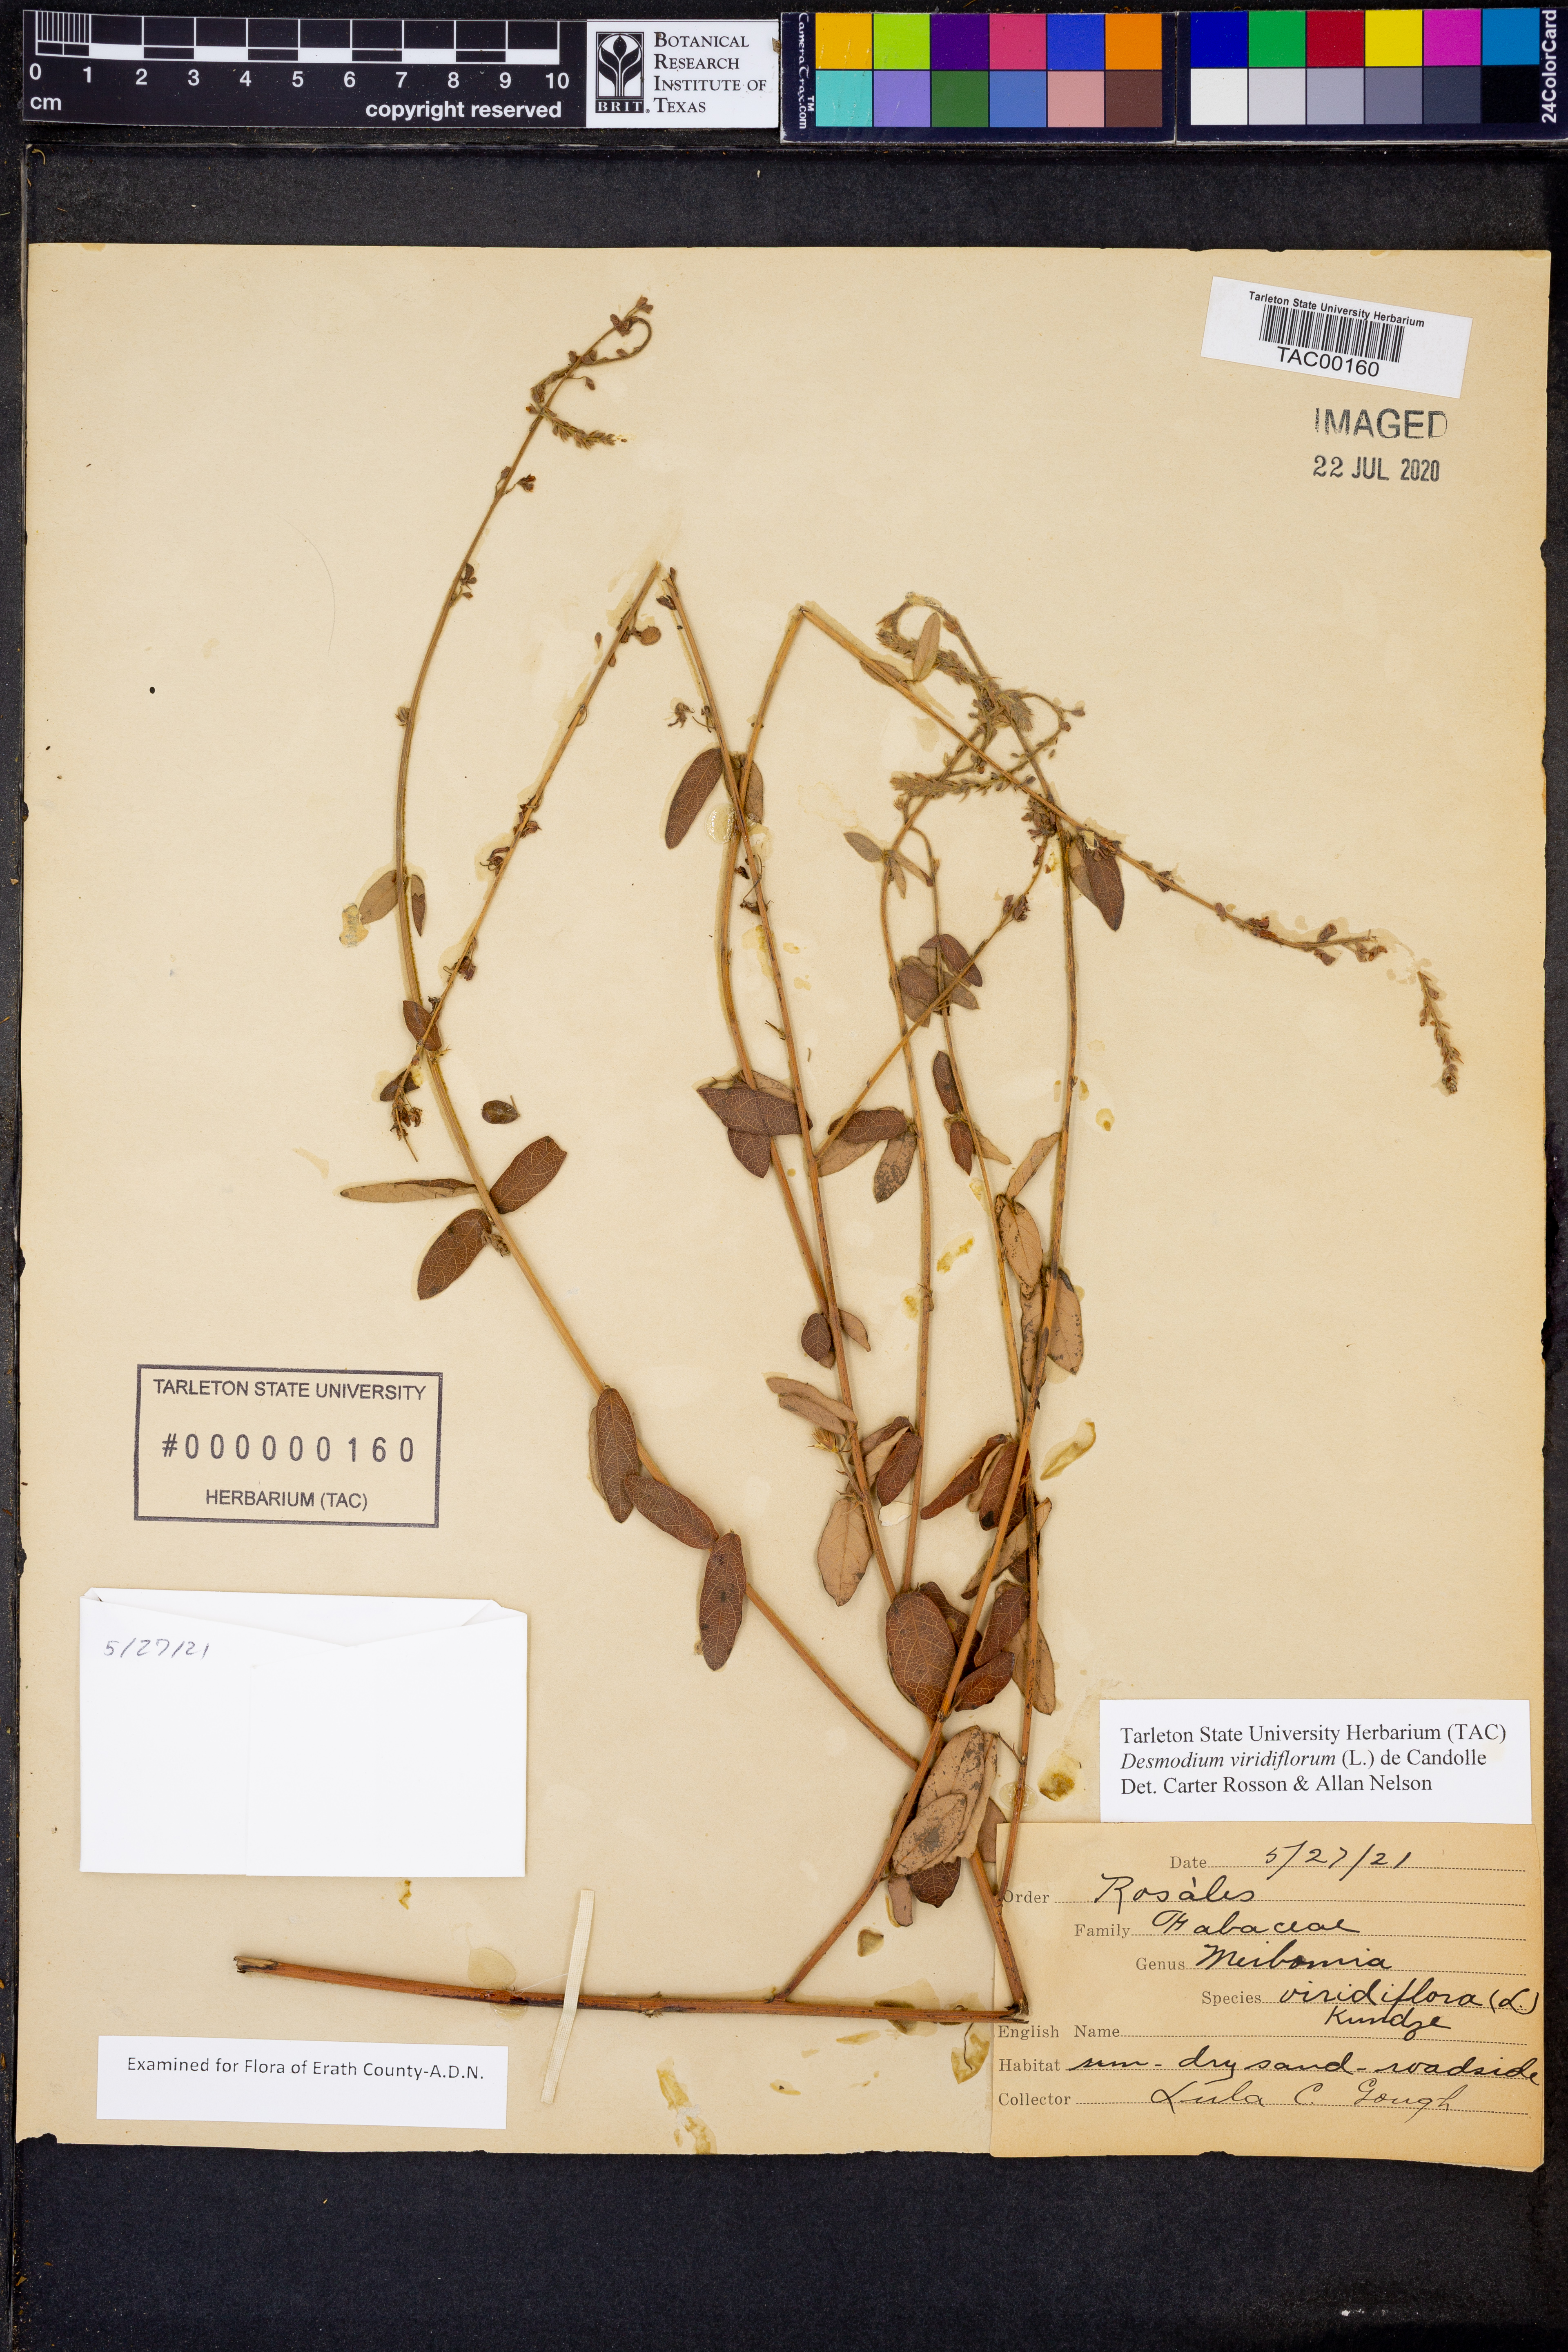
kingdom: Plantae
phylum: Tracheophyta
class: Magnoliopsida
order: Fabales
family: Fabaceae
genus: Desmodium
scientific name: Desmodium viridiflorum
